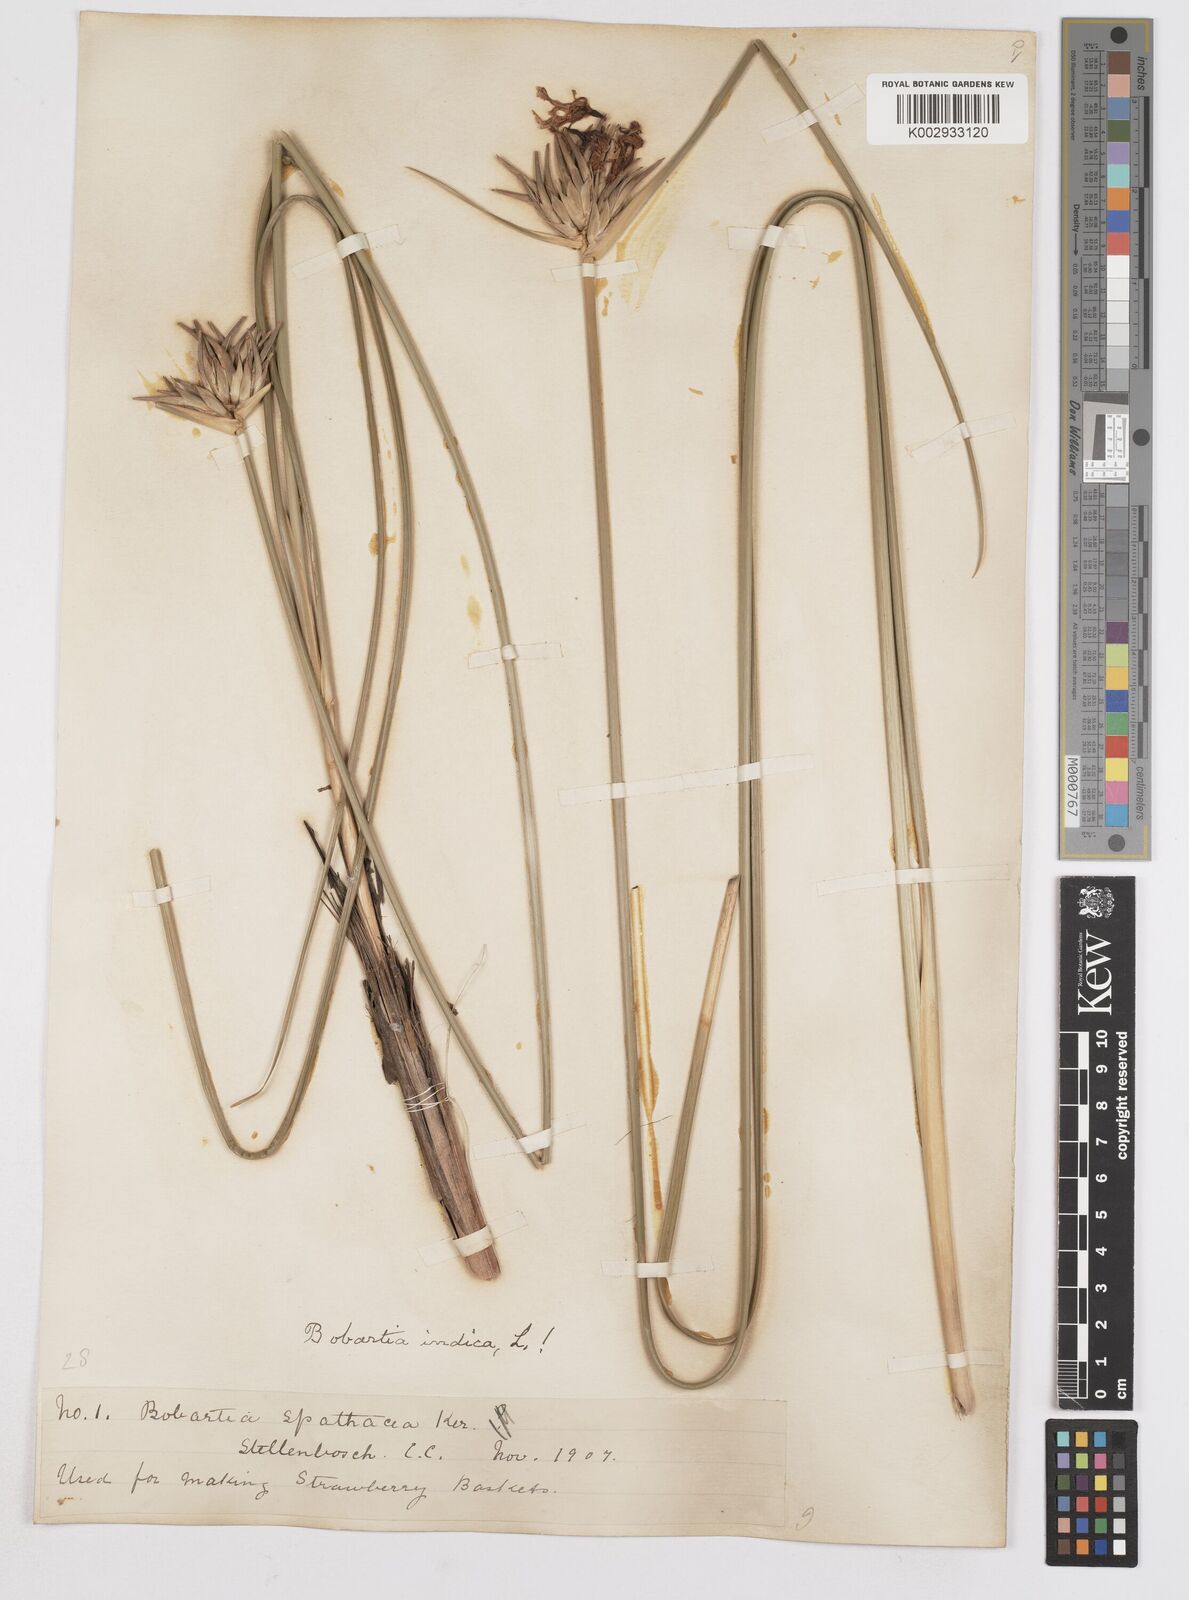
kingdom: Plantae
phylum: Tracheophyta
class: Liliopsida
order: Asparagales
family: Iridaceae
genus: Bobartia
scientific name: Bobartia indica
